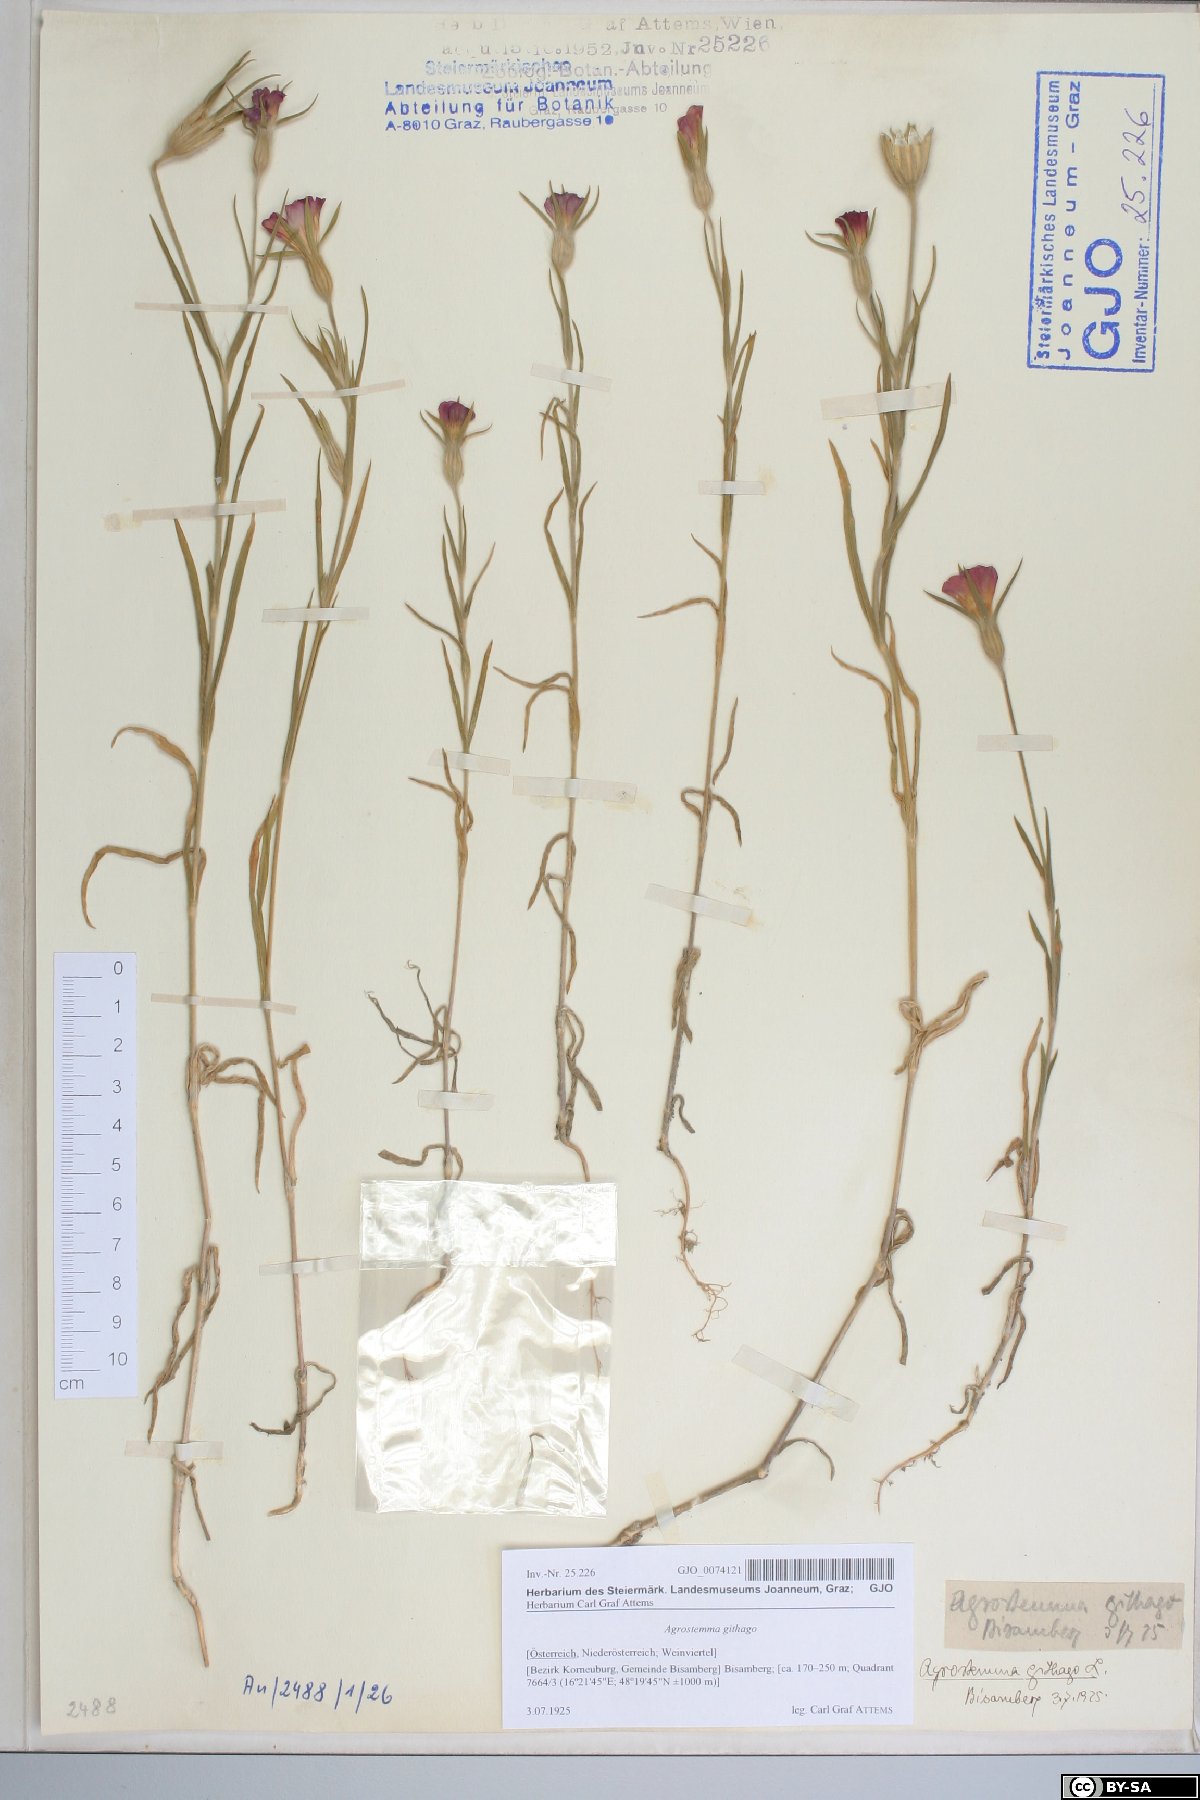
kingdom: Plantae
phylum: Tracheophyta
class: Magnoliopsida
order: Caryophyllales
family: Caryophyllaceae
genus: Agrostemma
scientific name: Agrostemma githago
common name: Common corncockle
